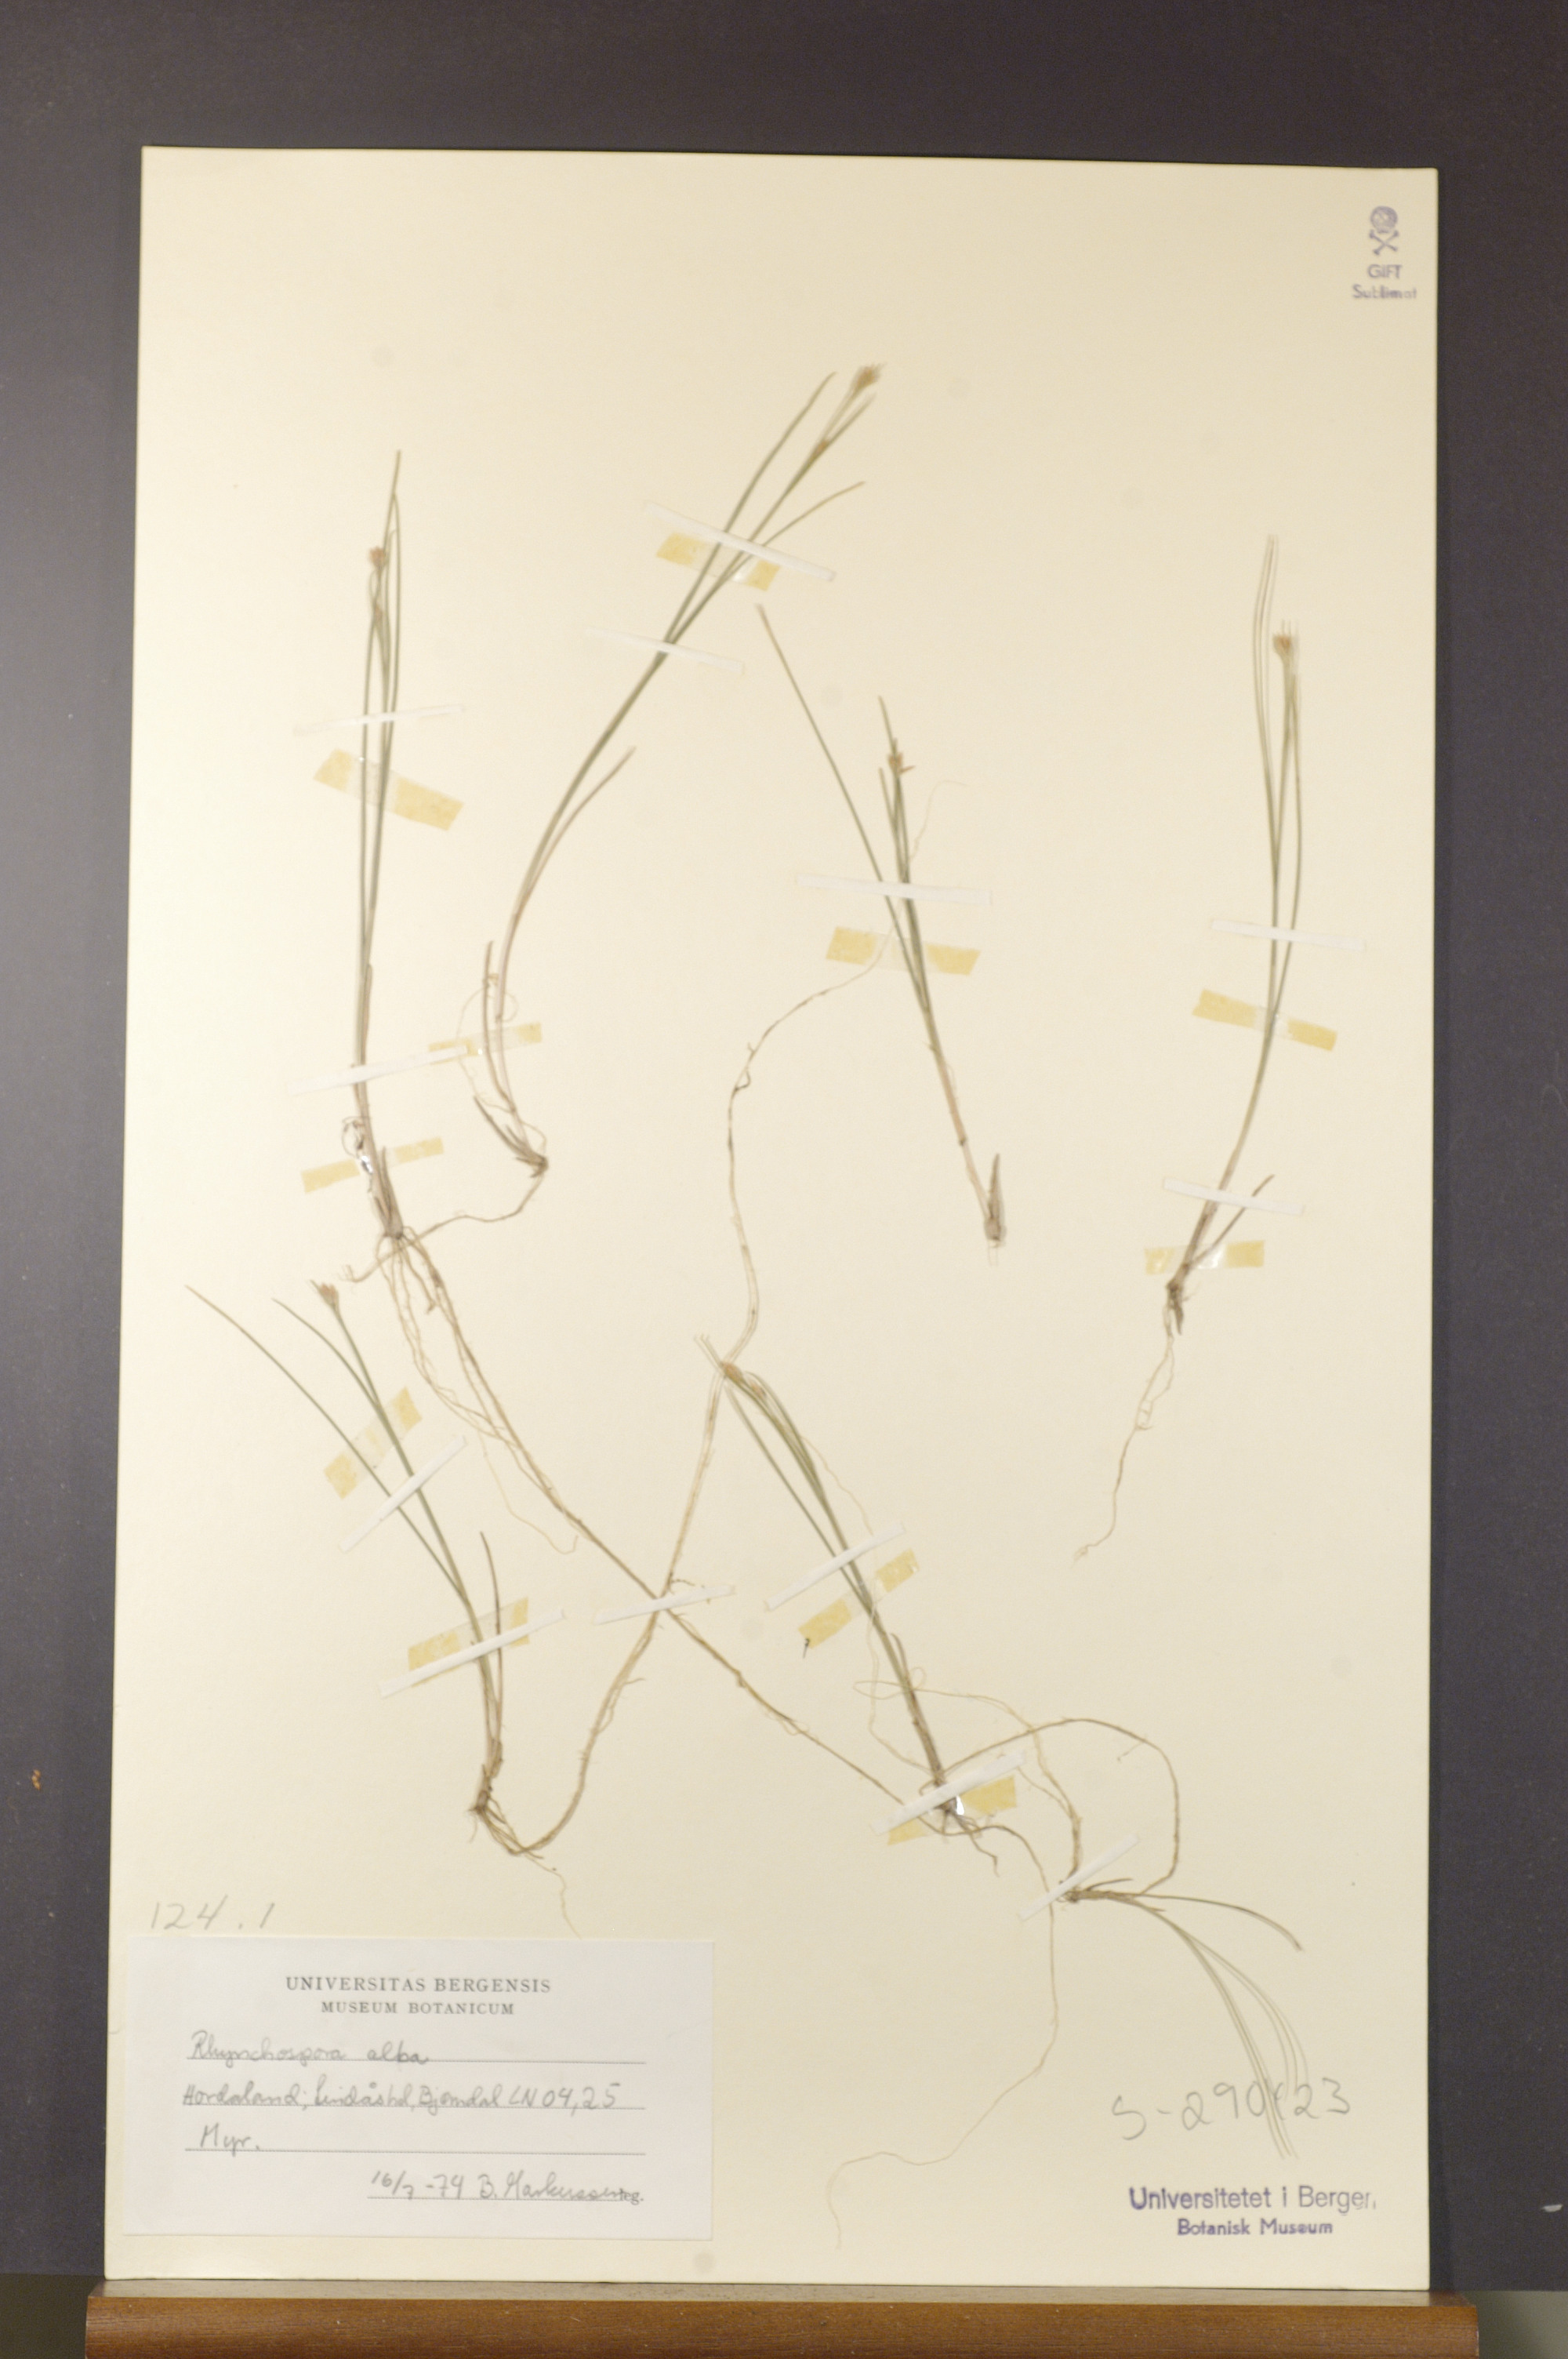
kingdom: Plantae
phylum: Tracheophyta
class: Liliopsida
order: Poales
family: Cyperaceae
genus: Rhynchospora
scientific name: Rhynchospora alba
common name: White beak-sedge
